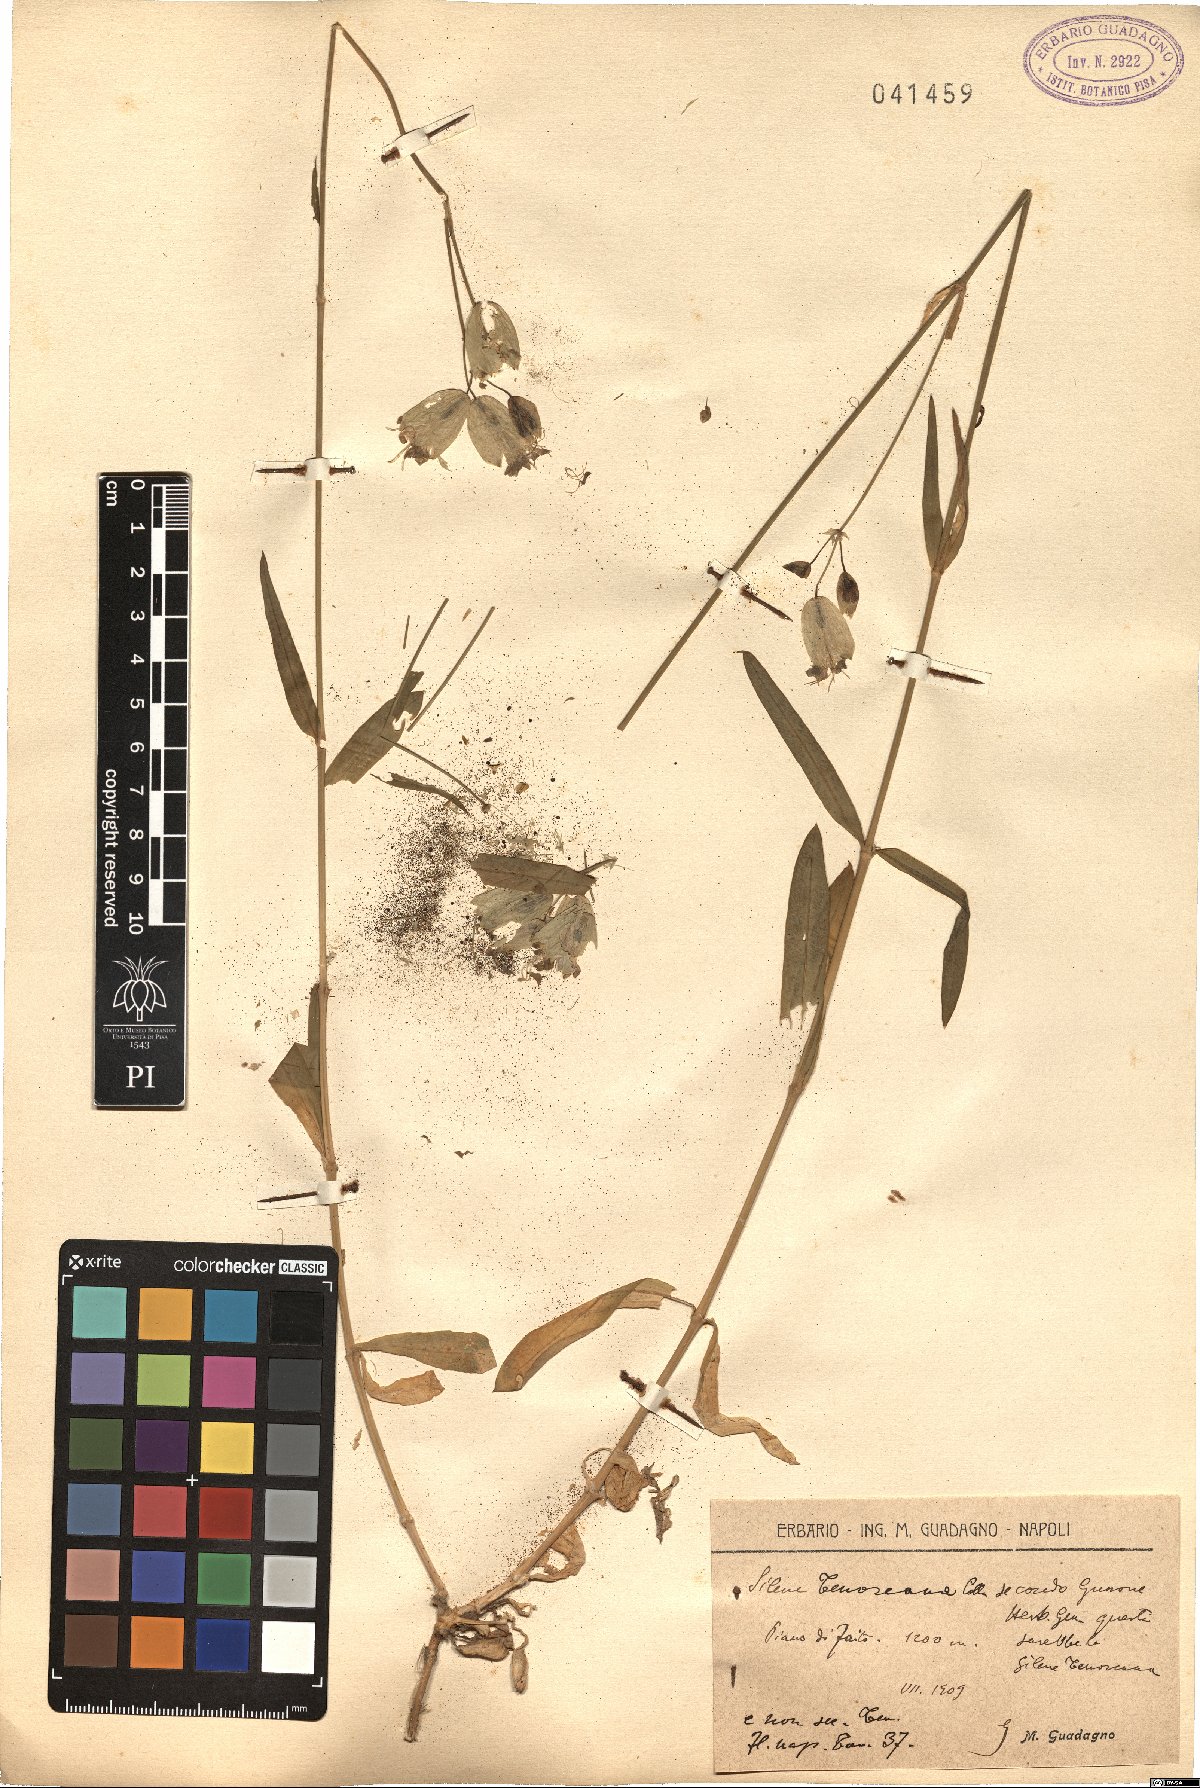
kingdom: Plantae
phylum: Tracheophyta
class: Magnoliopsida
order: Caryophyllales
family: Caryophyllaceae
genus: Silene
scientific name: Silene vulgaris
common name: Bladder campion
